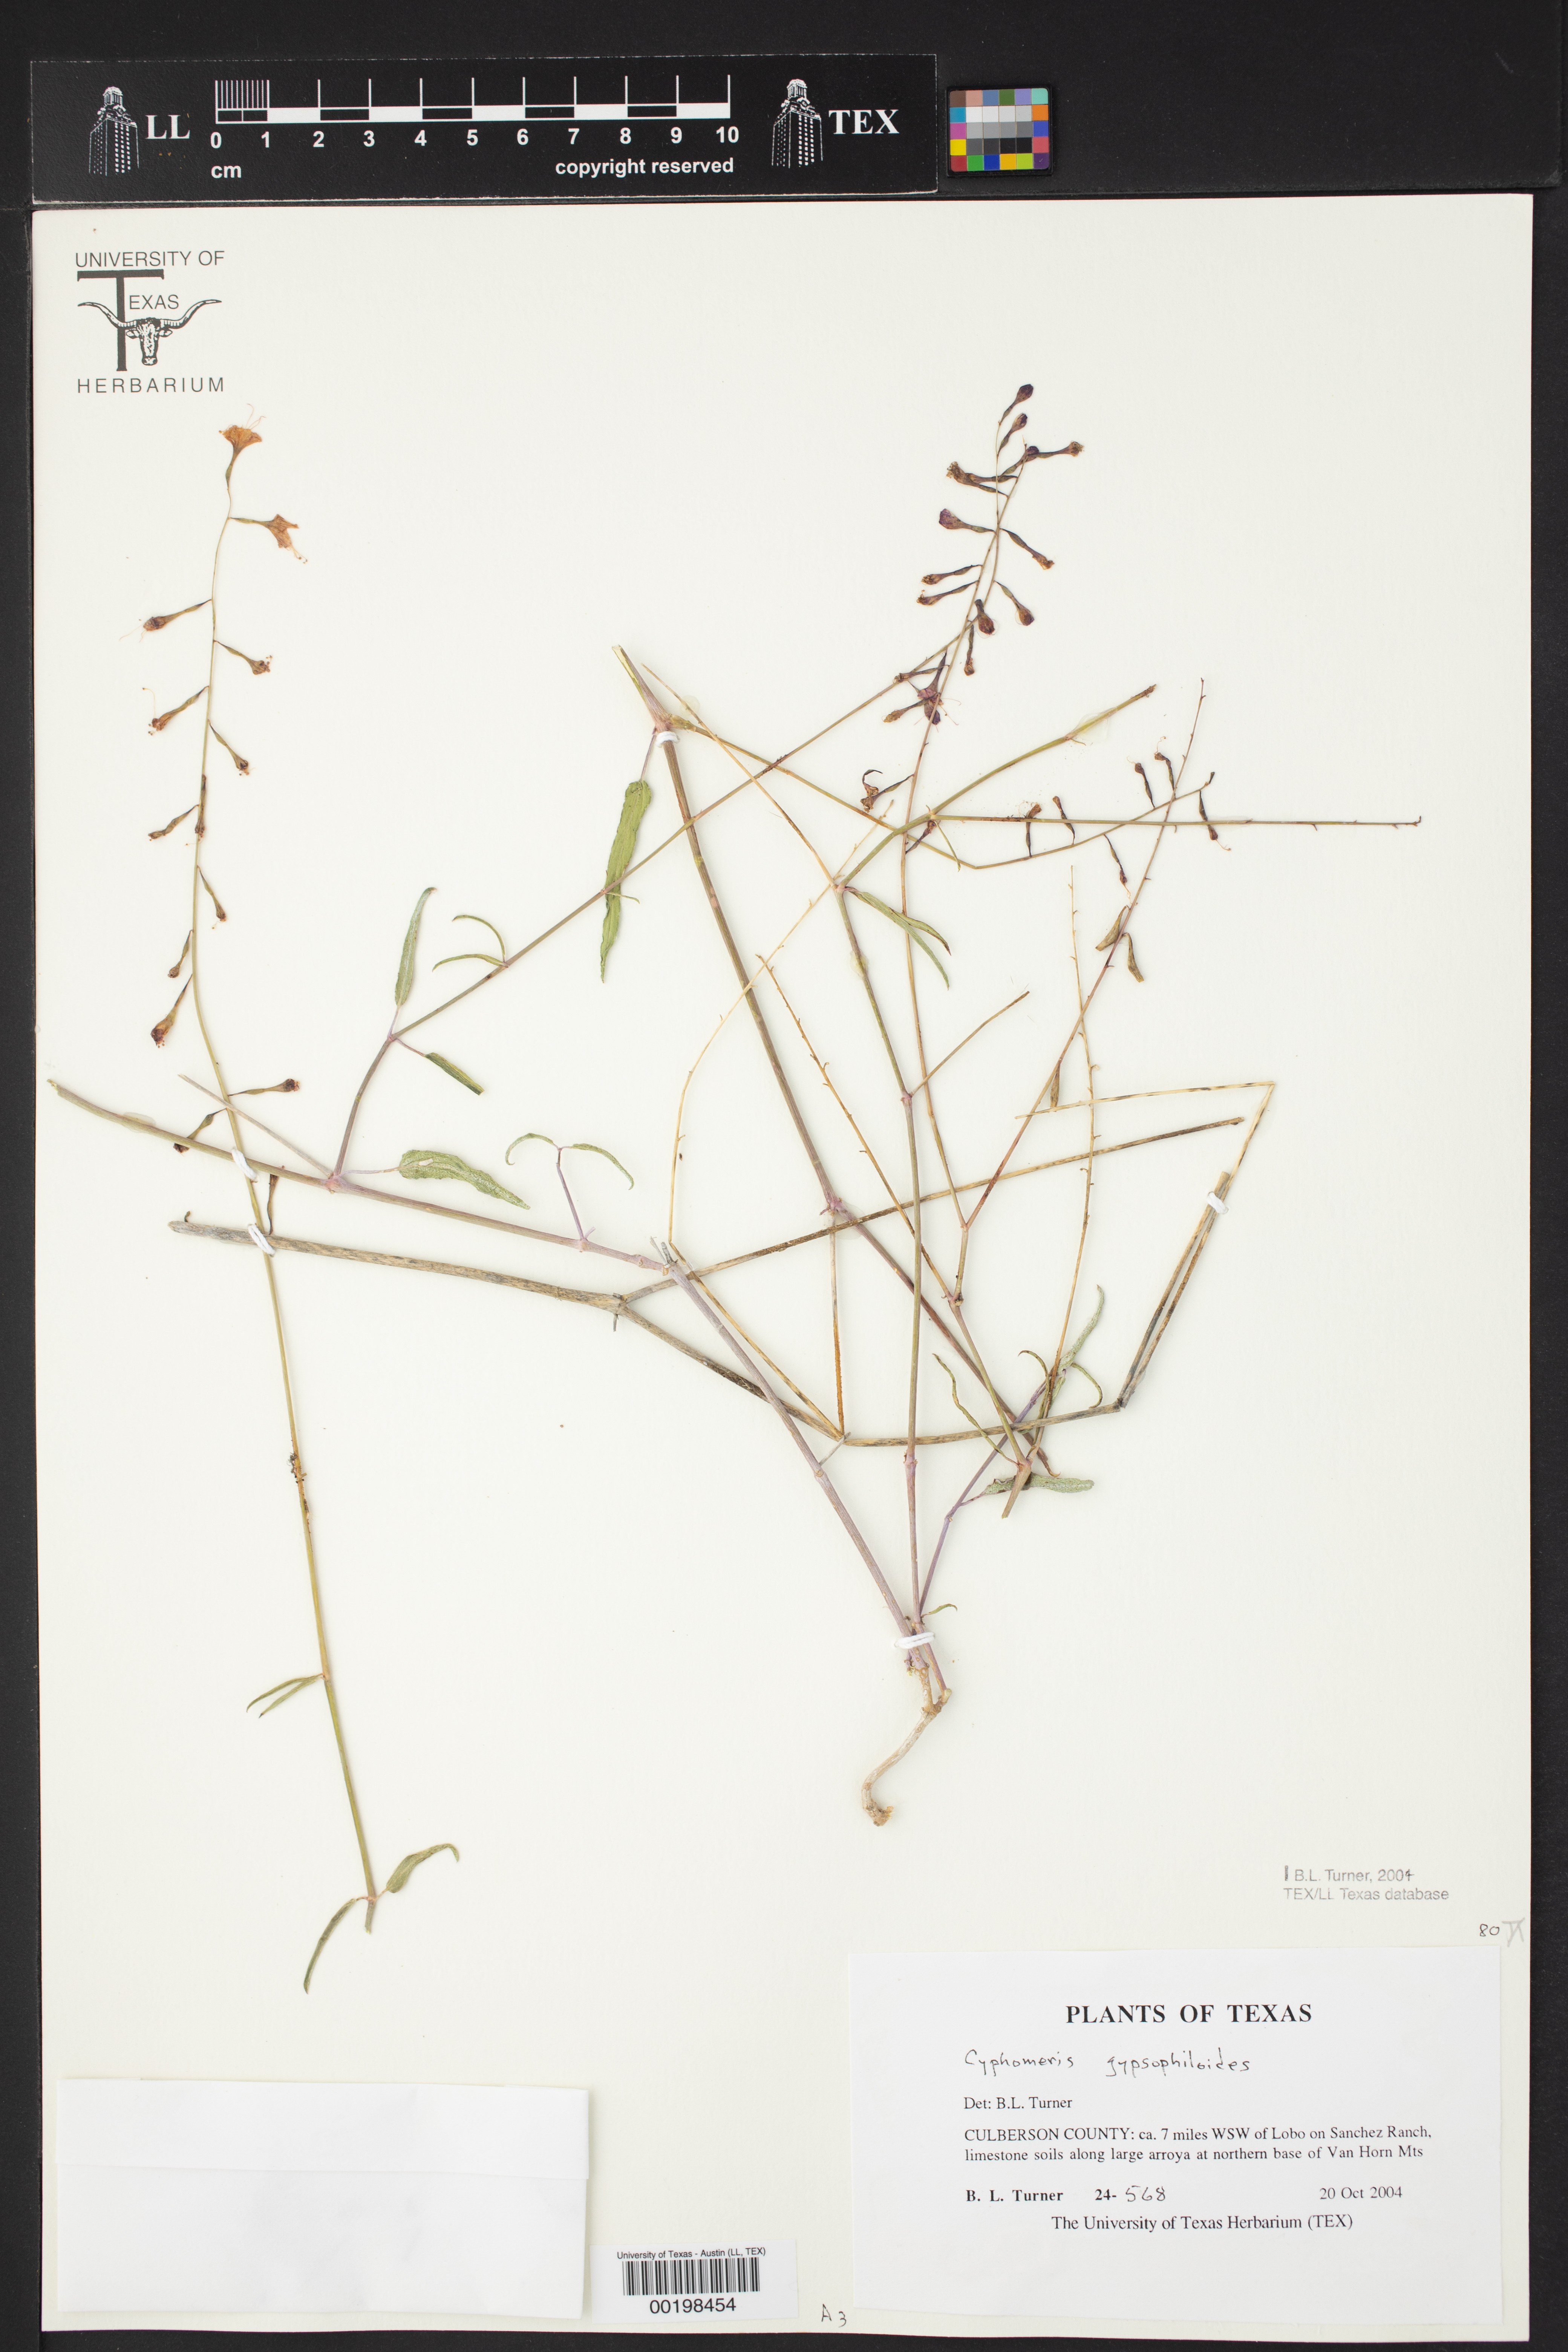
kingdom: Plantae
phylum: Tracheophyta
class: Magnoliopsida
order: Caryophyllales
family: Nyctaginaceae
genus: Cyphomeris
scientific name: Cyphomeris gypsophiloides
